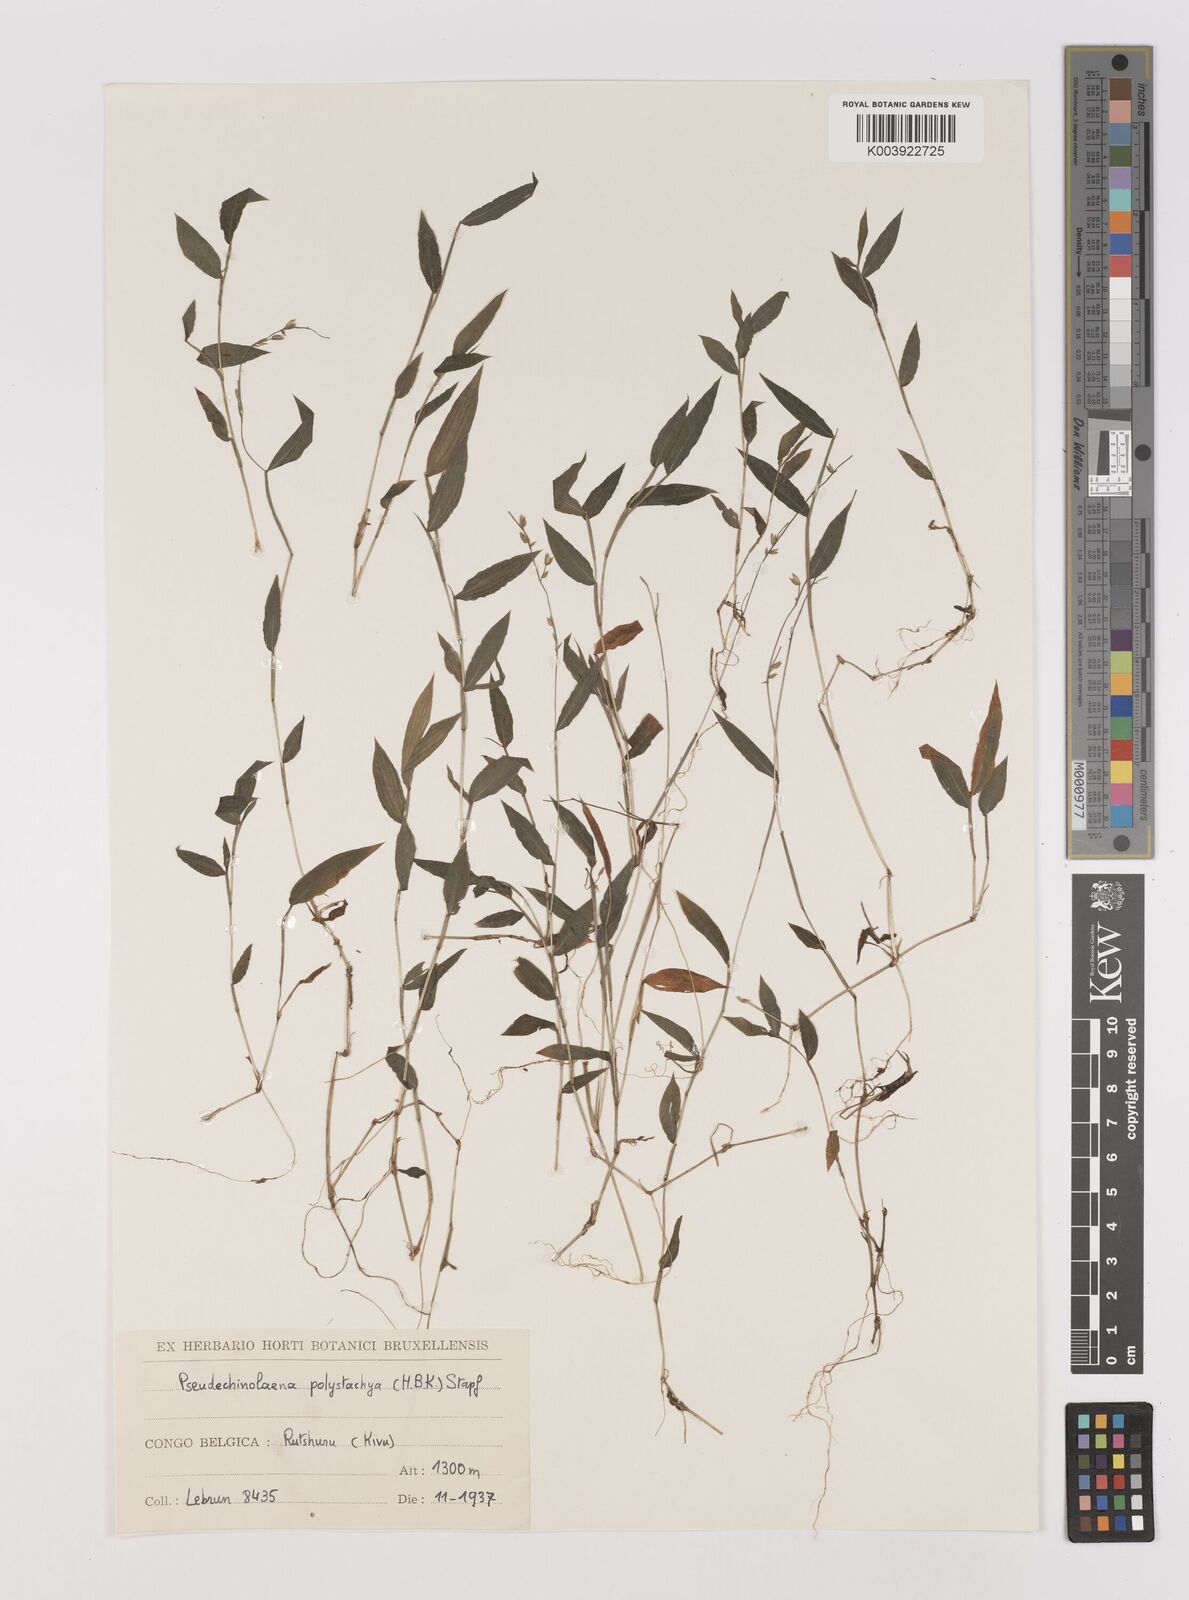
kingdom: Plantae
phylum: Tracheophyta
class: Liliopsida
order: Poales
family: Poaceae
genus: Pseudechinolaena
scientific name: Pseudechinolaena polystachya
